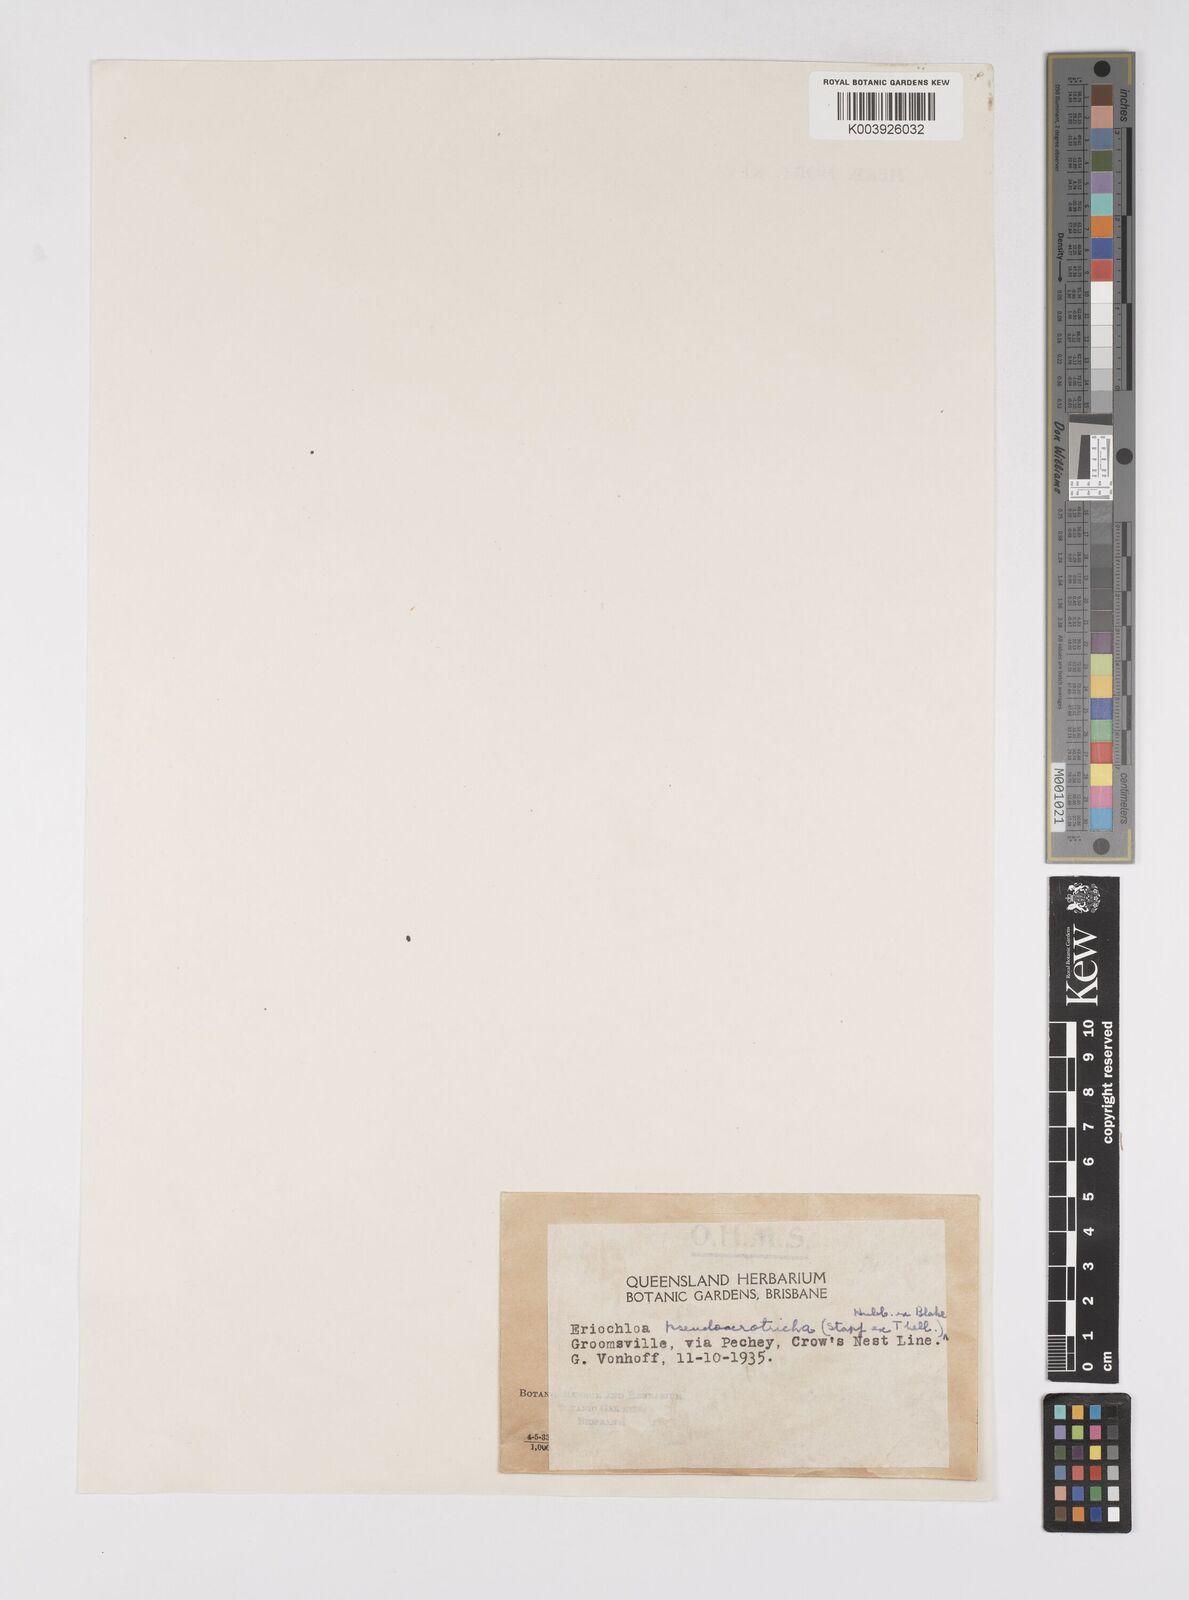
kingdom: Plantae
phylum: Tracheophyta
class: Liliopsida
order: Poales
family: Poaceae
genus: Eriochloa
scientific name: Eriochloa
